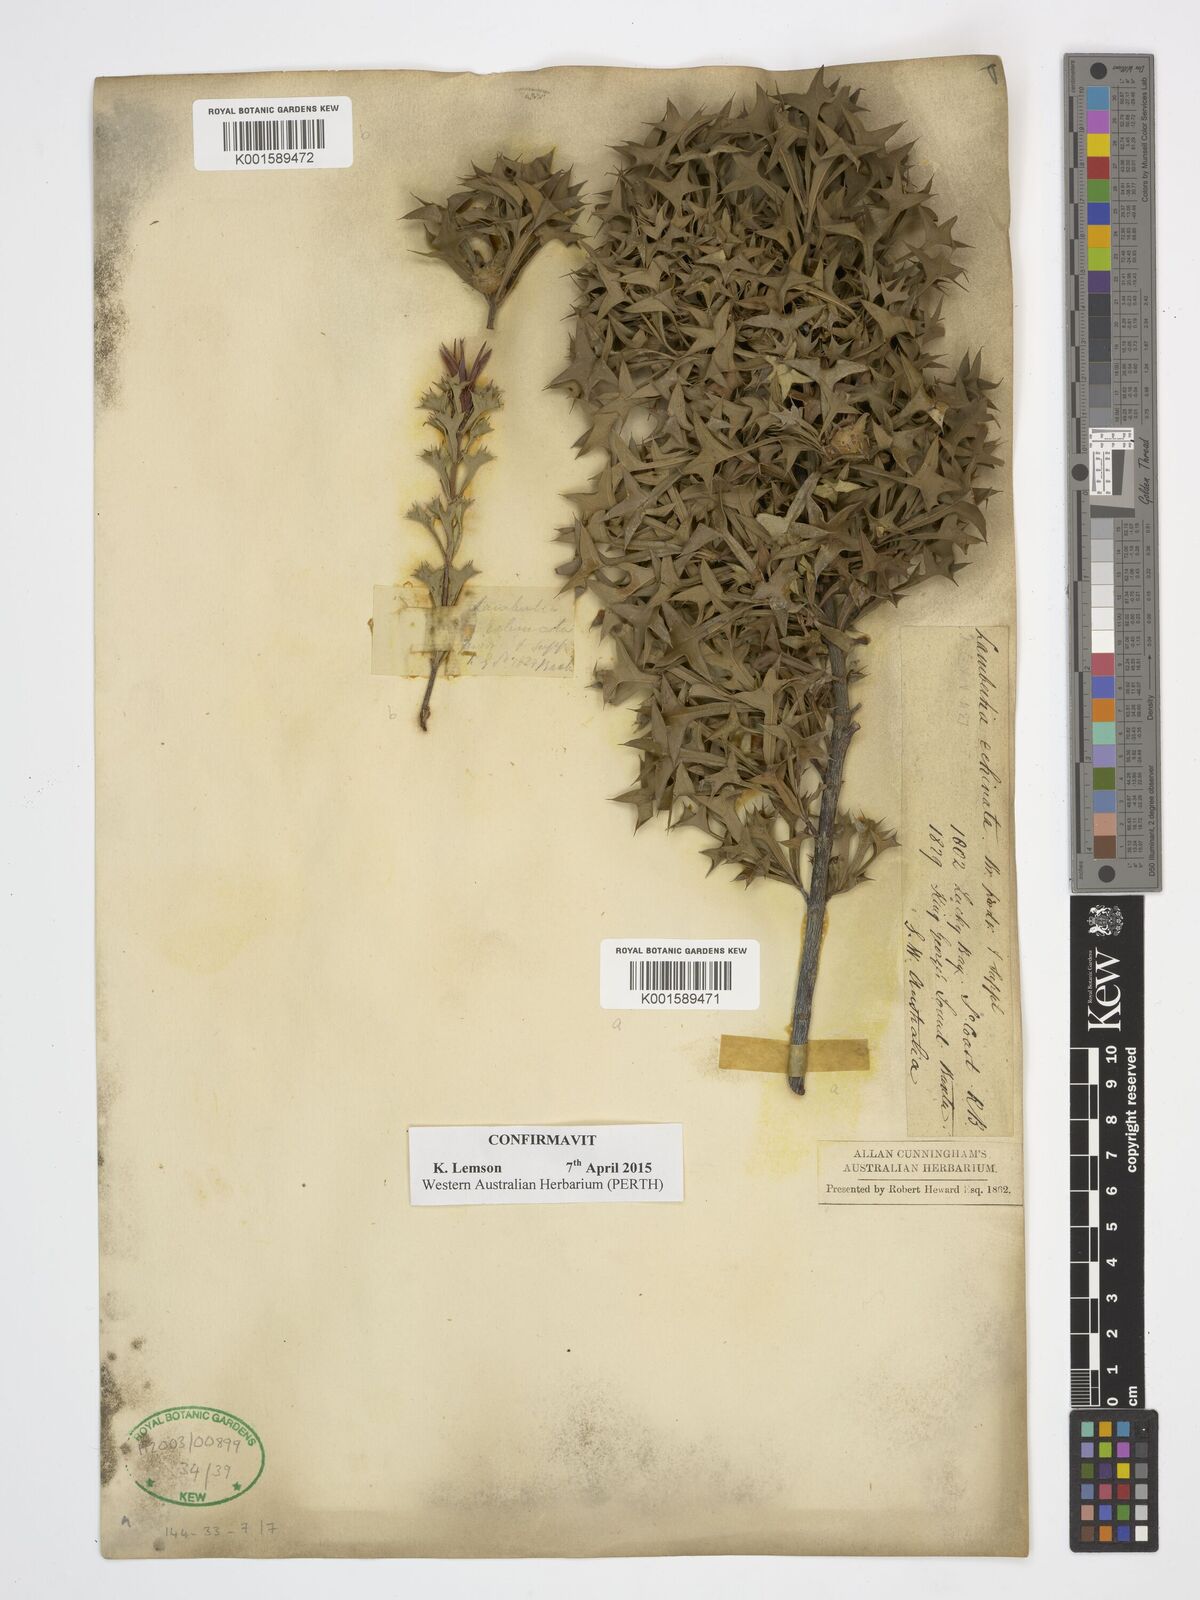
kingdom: Plantae
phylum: Tracheophyta
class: Magnoliopsida
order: Proteales
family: Proteaceae
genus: Lambertia
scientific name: Lambertia echinata
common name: Prickly honeysuckle
